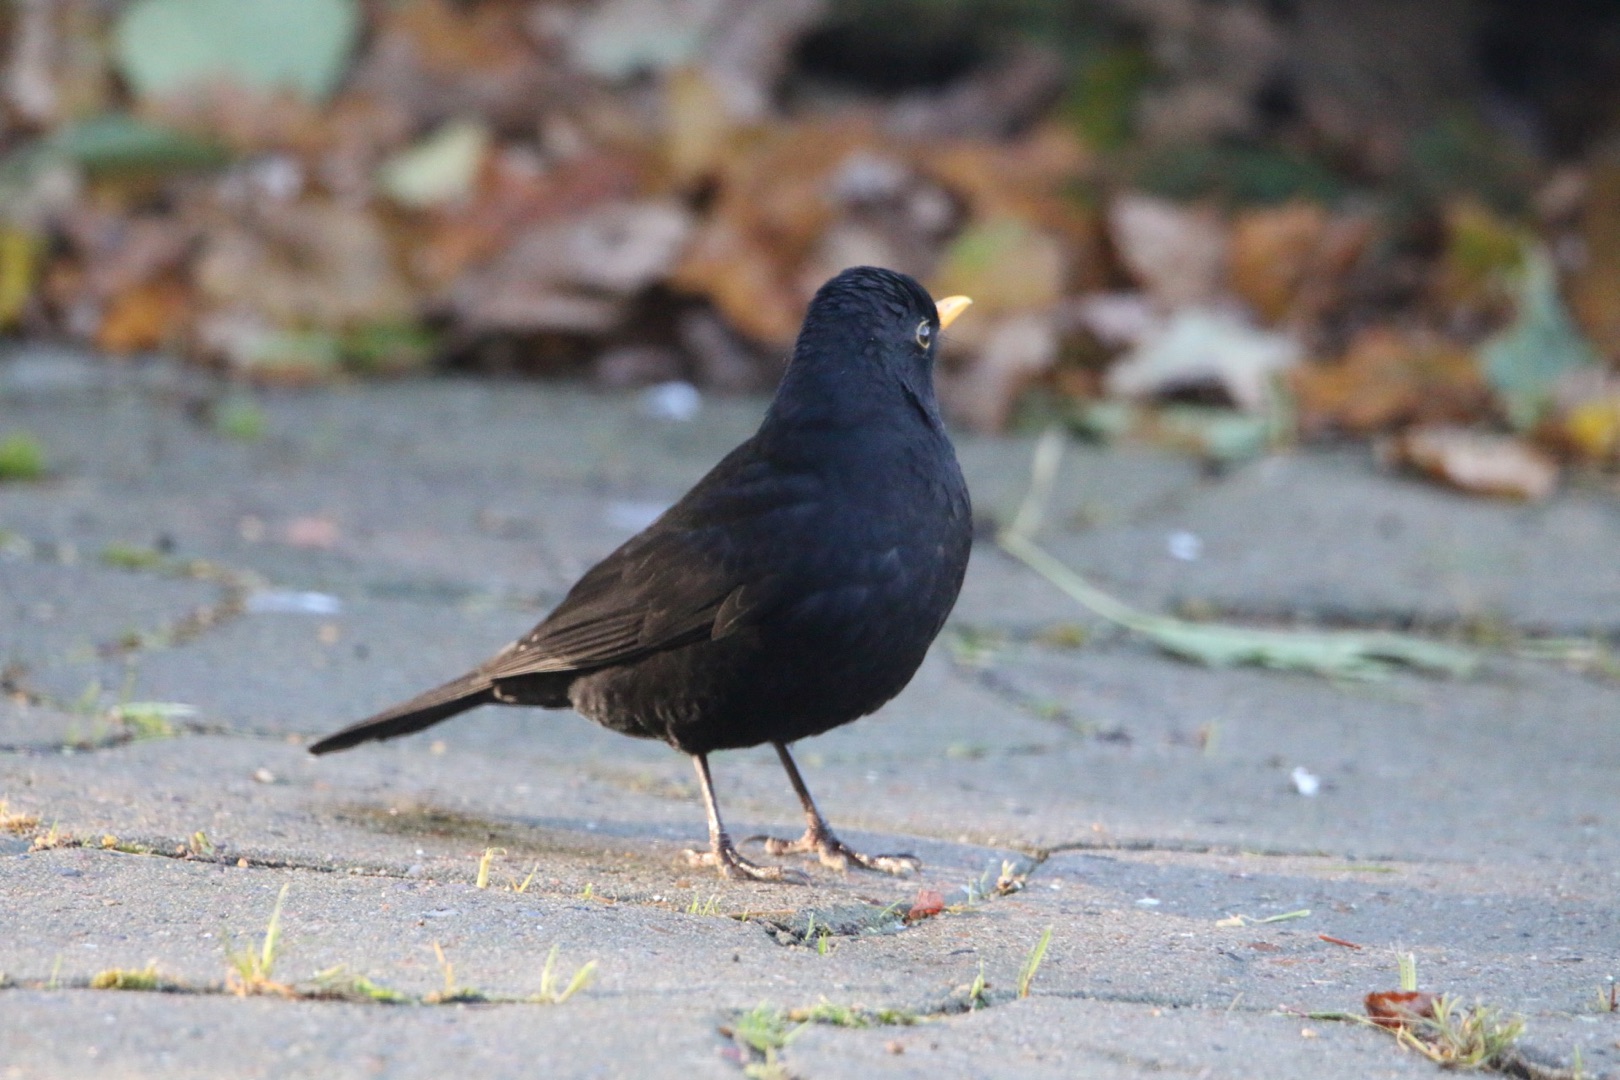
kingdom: Animalia
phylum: Chordata
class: Aves
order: Passeriformes
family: Turdidae
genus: Turdus
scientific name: Turdus merula
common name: Solsort
